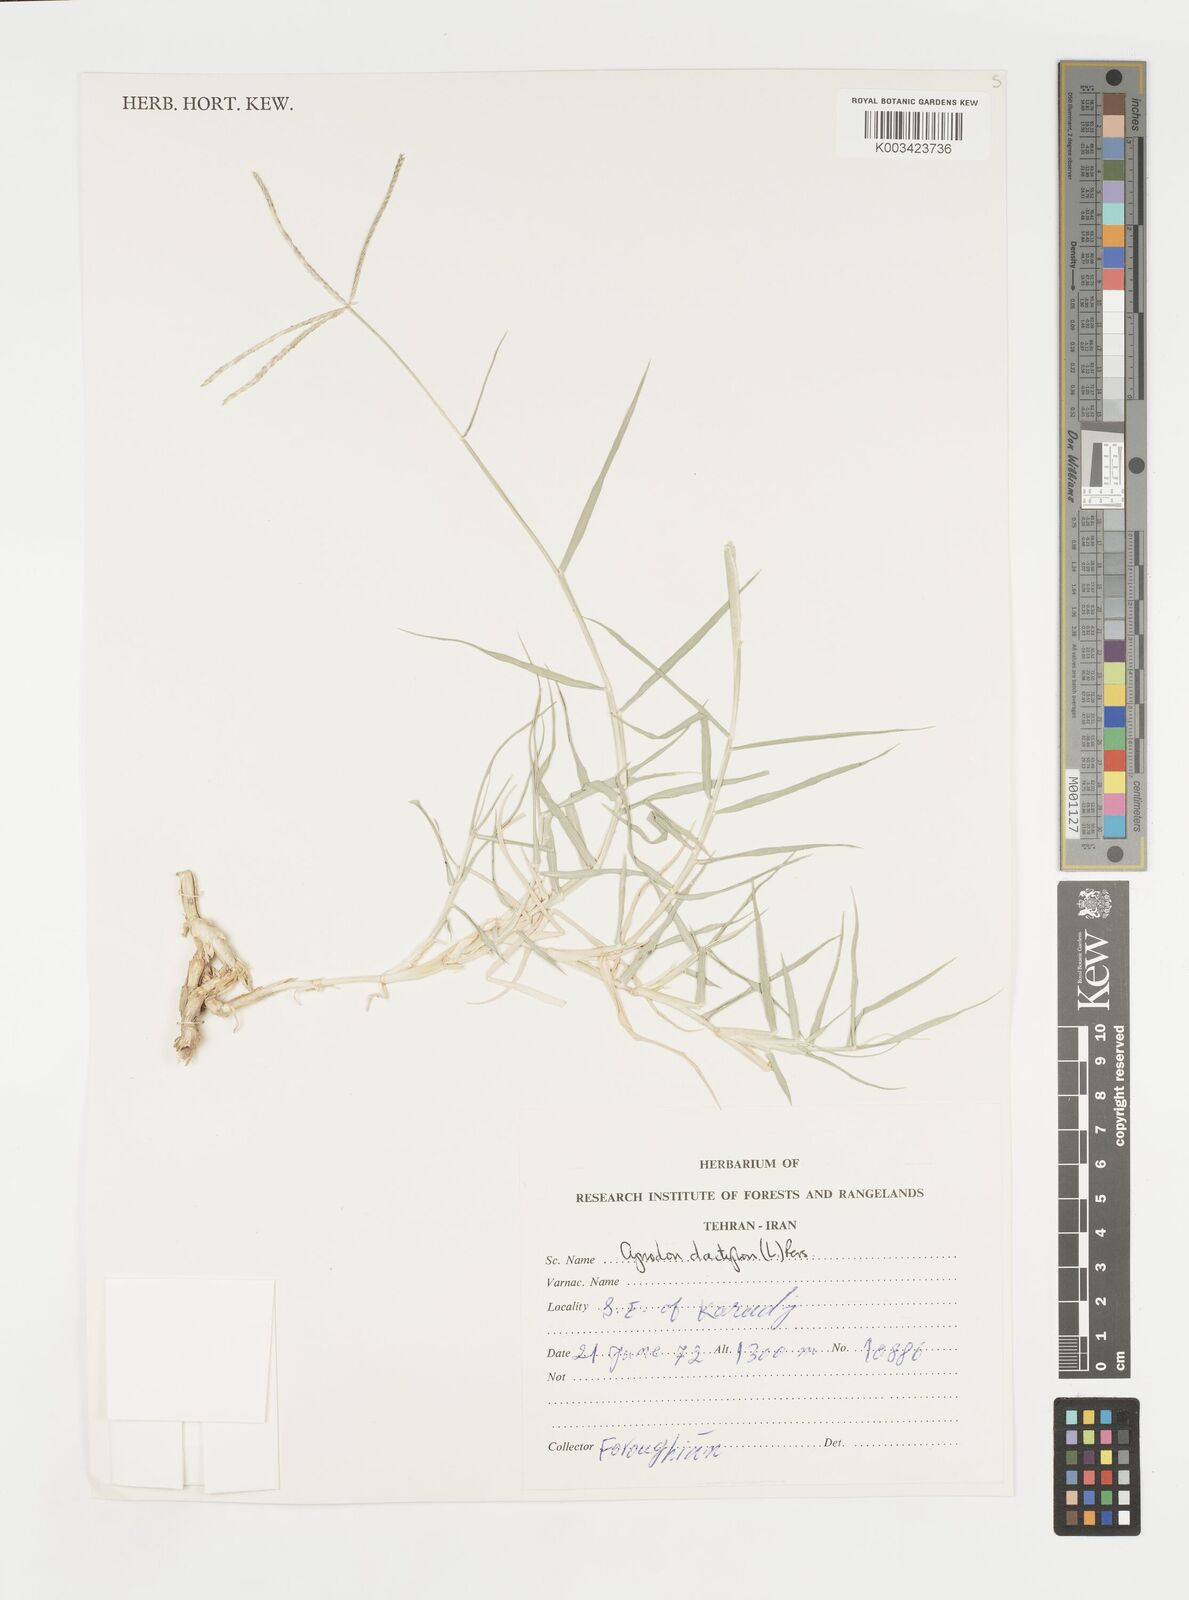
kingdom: Plantae
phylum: Tracheophyta
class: Liliopsida
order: Poales
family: Poaceae
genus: Cynodon
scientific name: Cynodon dactylon
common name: Bermuda grass
